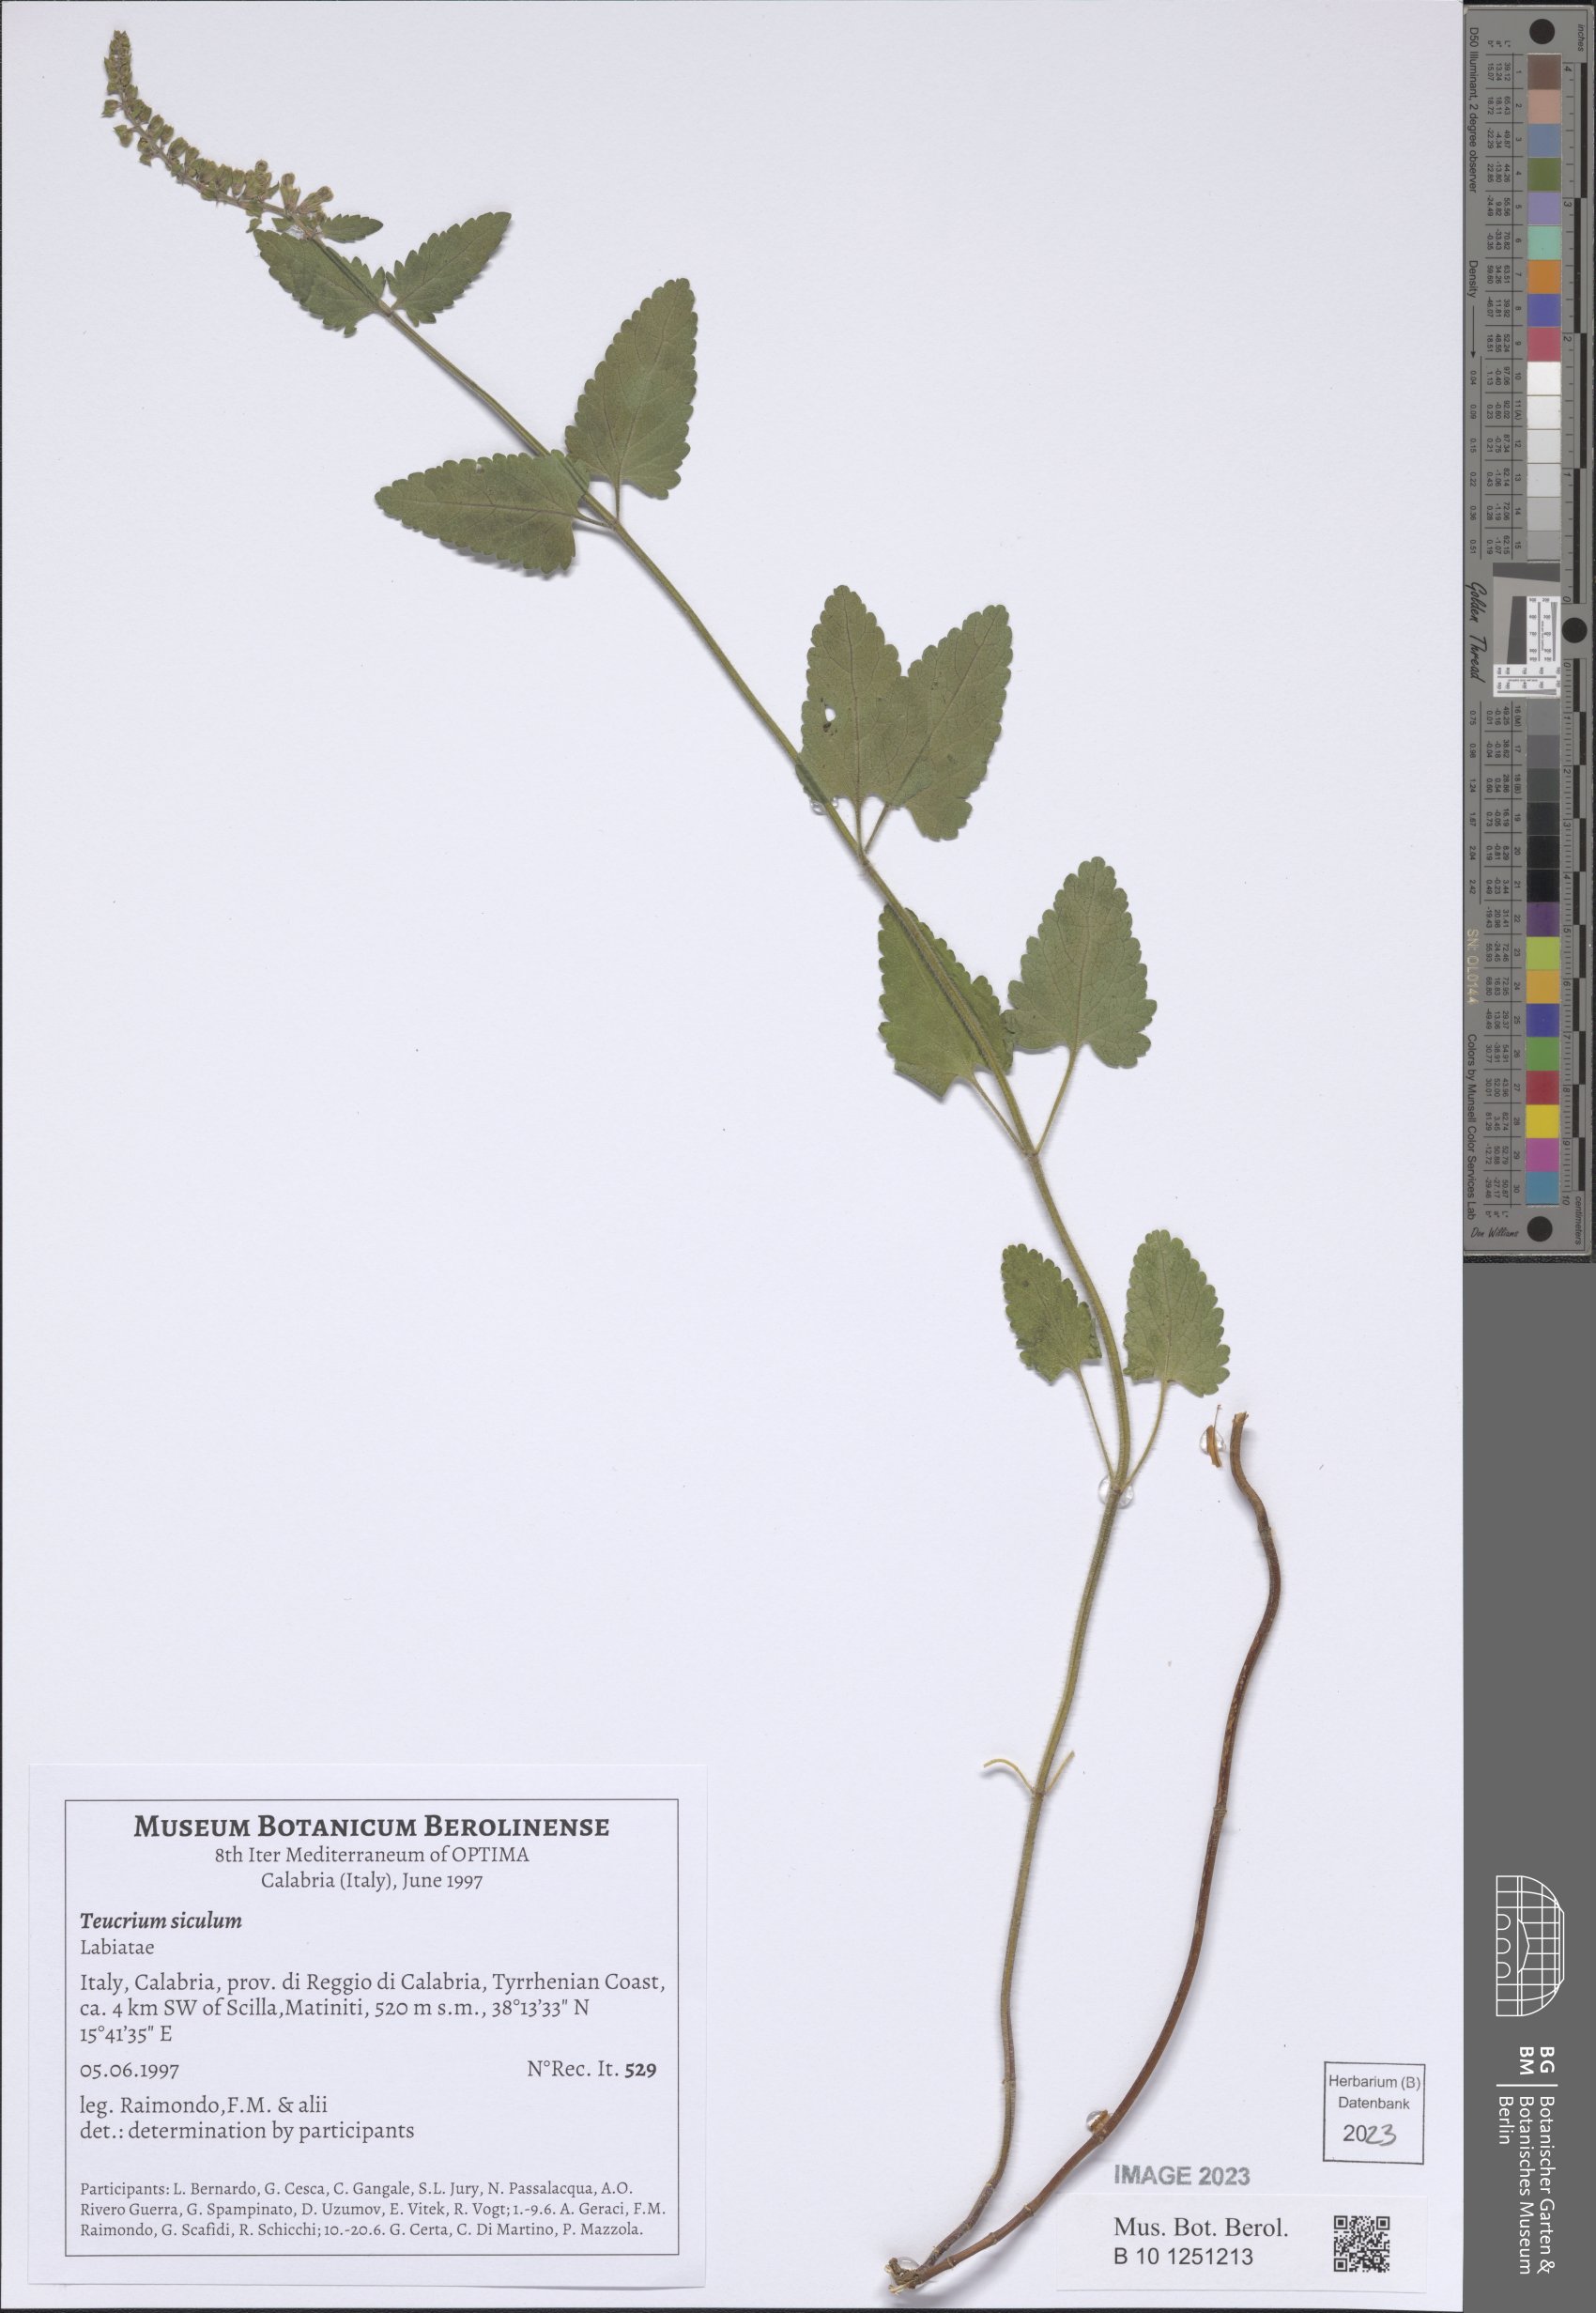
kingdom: Plantae
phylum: Tracheophyta
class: Magnoliopsida
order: Lamiales
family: Lamiaceae
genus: Teucrium
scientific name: Teucrium siculum
